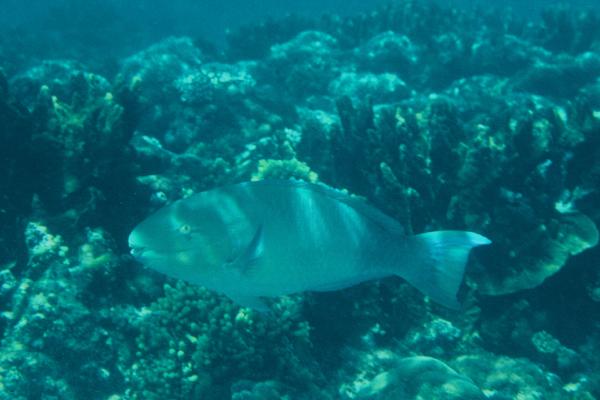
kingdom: Animalia
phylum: Chordata
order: Perciformes
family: Scaridae
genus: Scarus
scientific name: Scarus ghobban
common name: Blue-barred parrotfish
